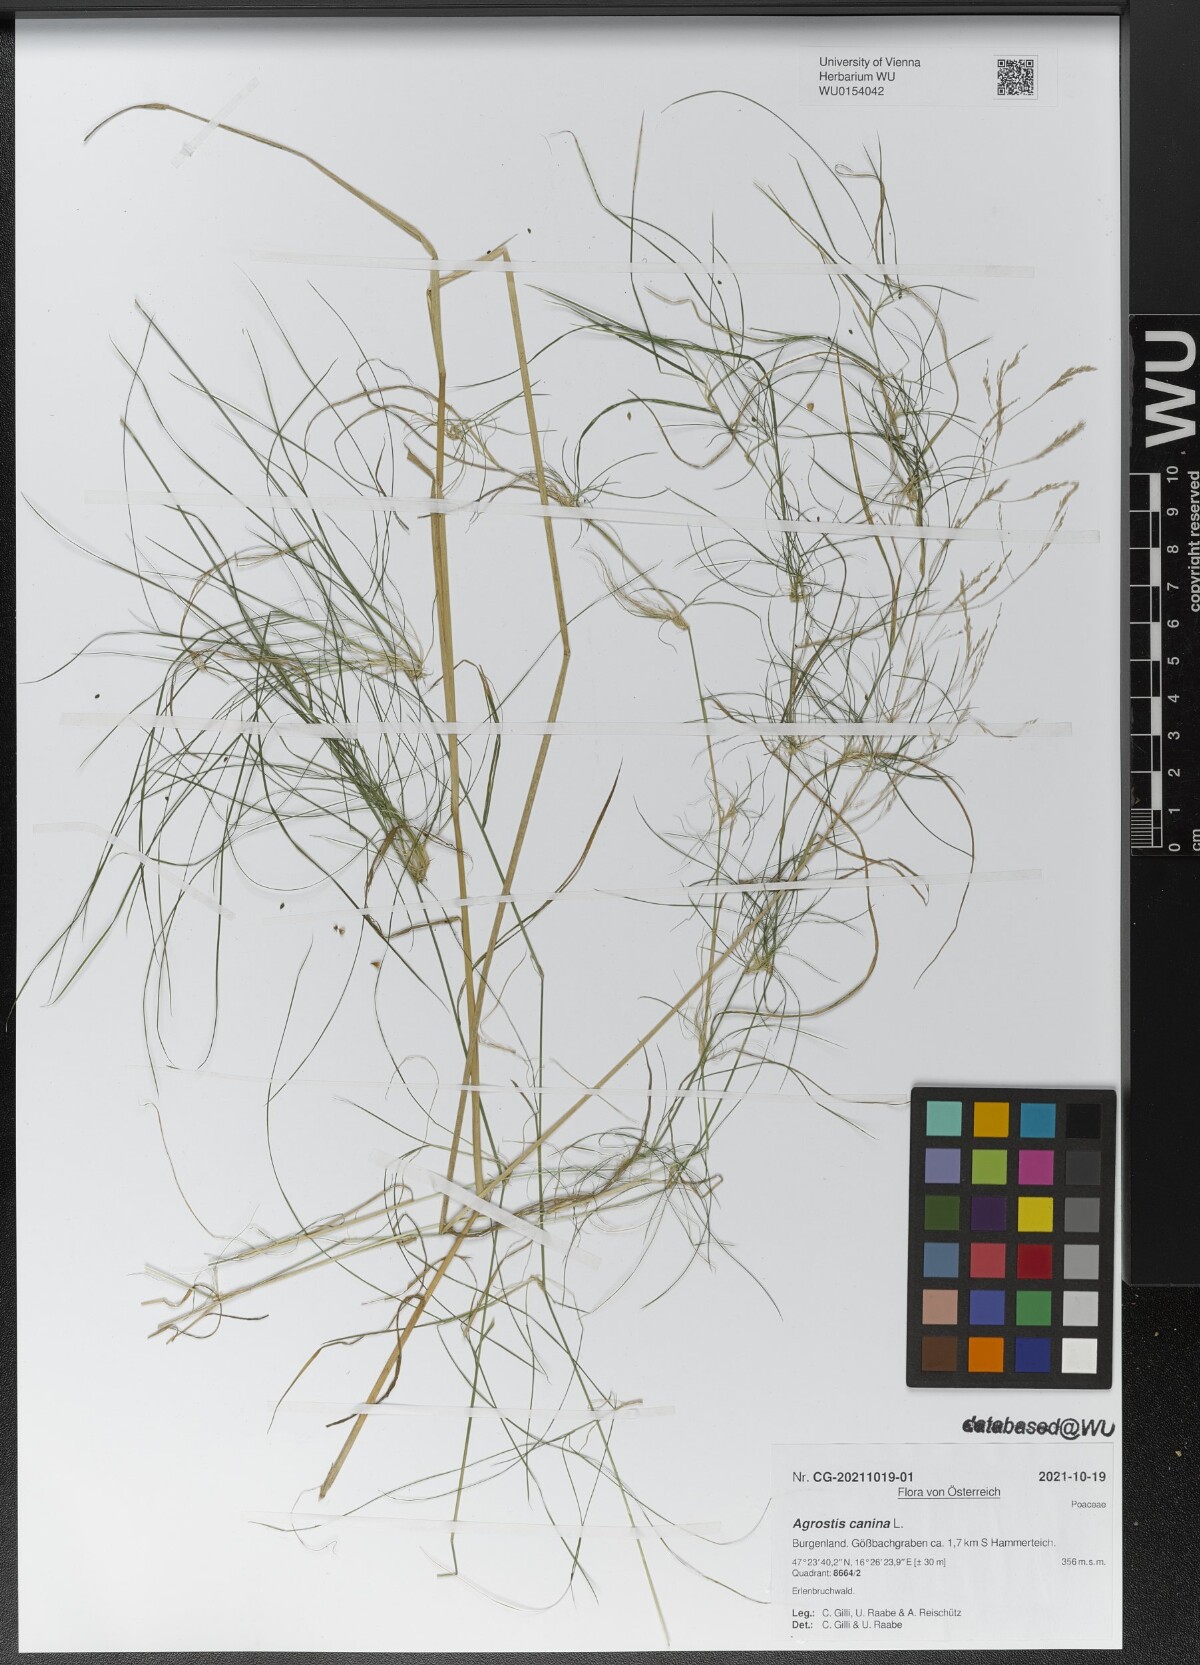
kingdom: Plantae
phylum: Tracheophyta
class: Liliopsida
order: Poales
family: Poaceae
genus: Agrostis
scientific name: Agrostis canina
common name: Velvet bent
